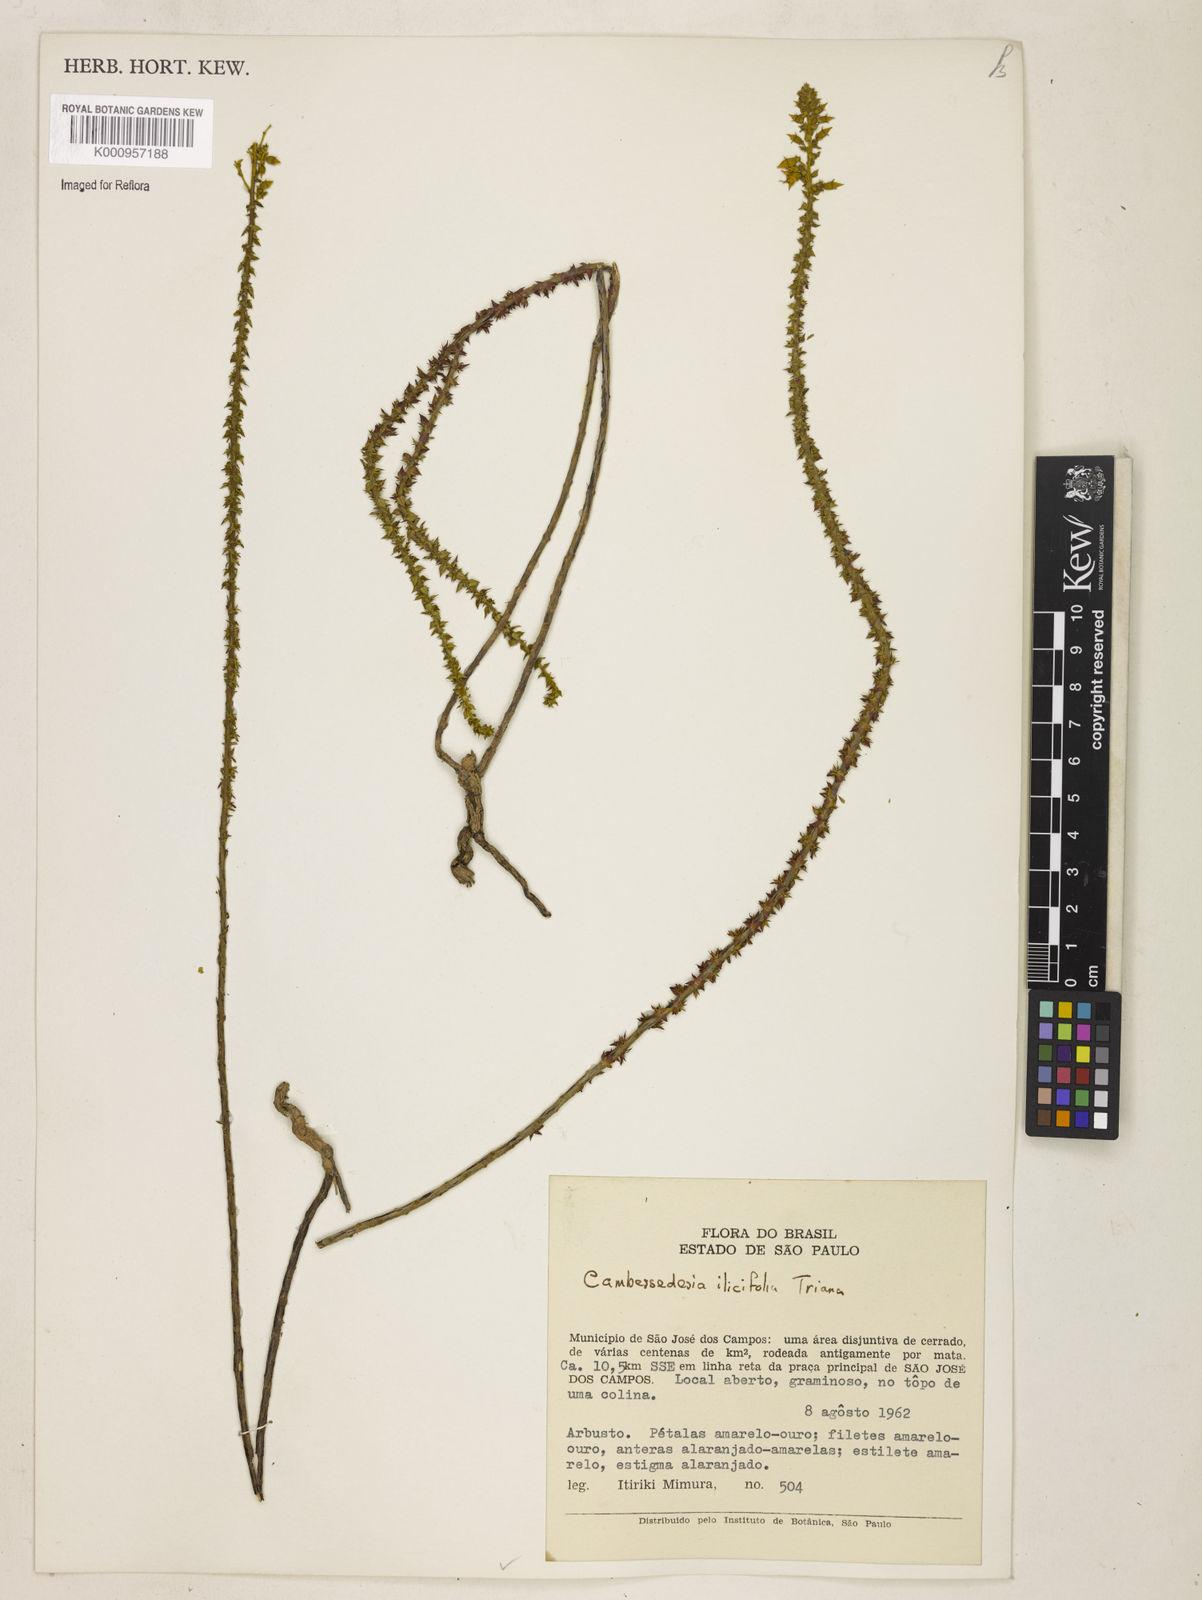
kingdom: Plantae
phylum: Tracheophyta
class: Magnoliopsida
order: Myrtales
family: Melastomataceae
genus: Cambessedesia
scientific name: Cambessedesia espora
